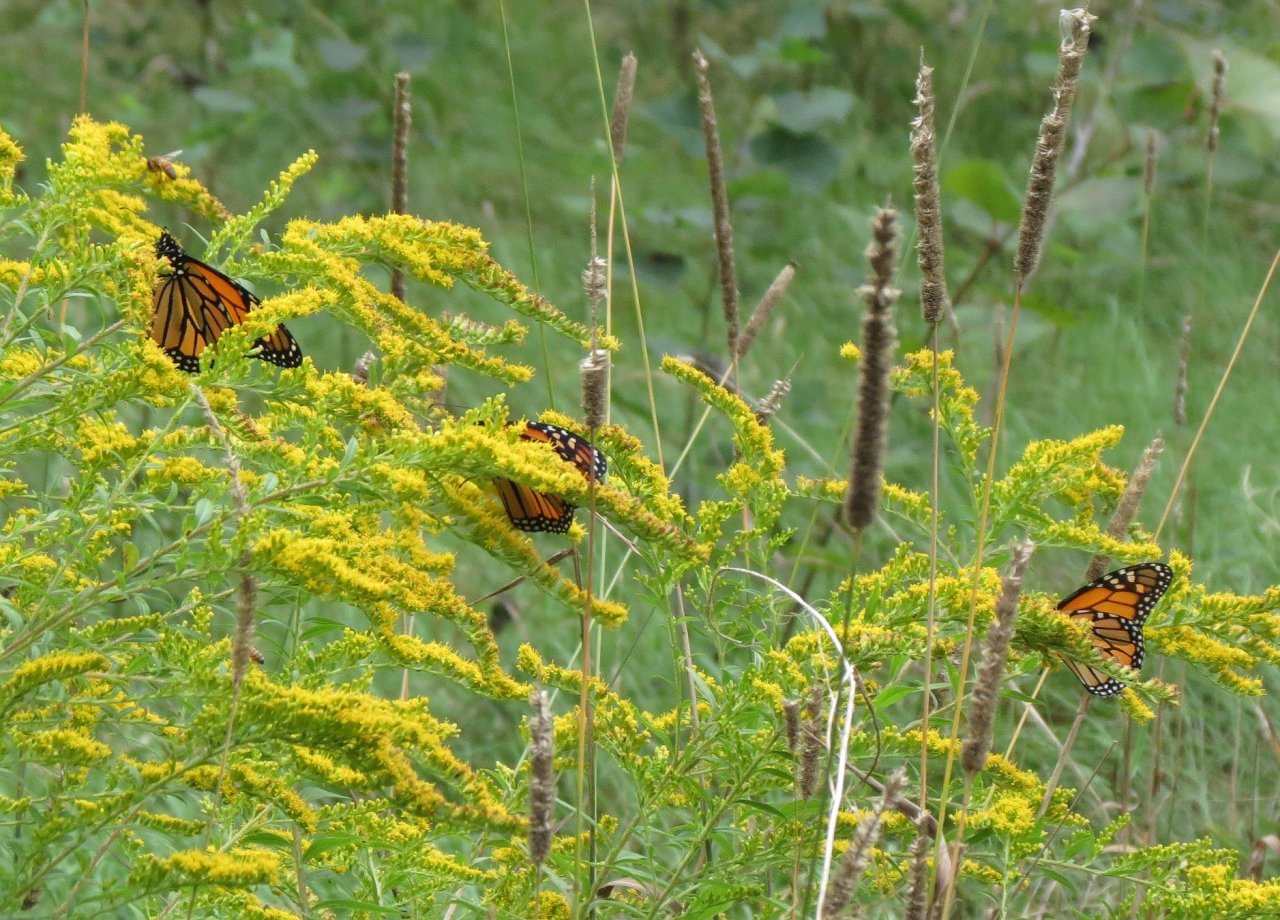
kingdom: Animalia
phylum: Arthropoda
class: Insecta
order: Lepidoptera
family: Nymphalidae
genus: Danaus
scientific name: Danaus plexippus
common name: Monarch
